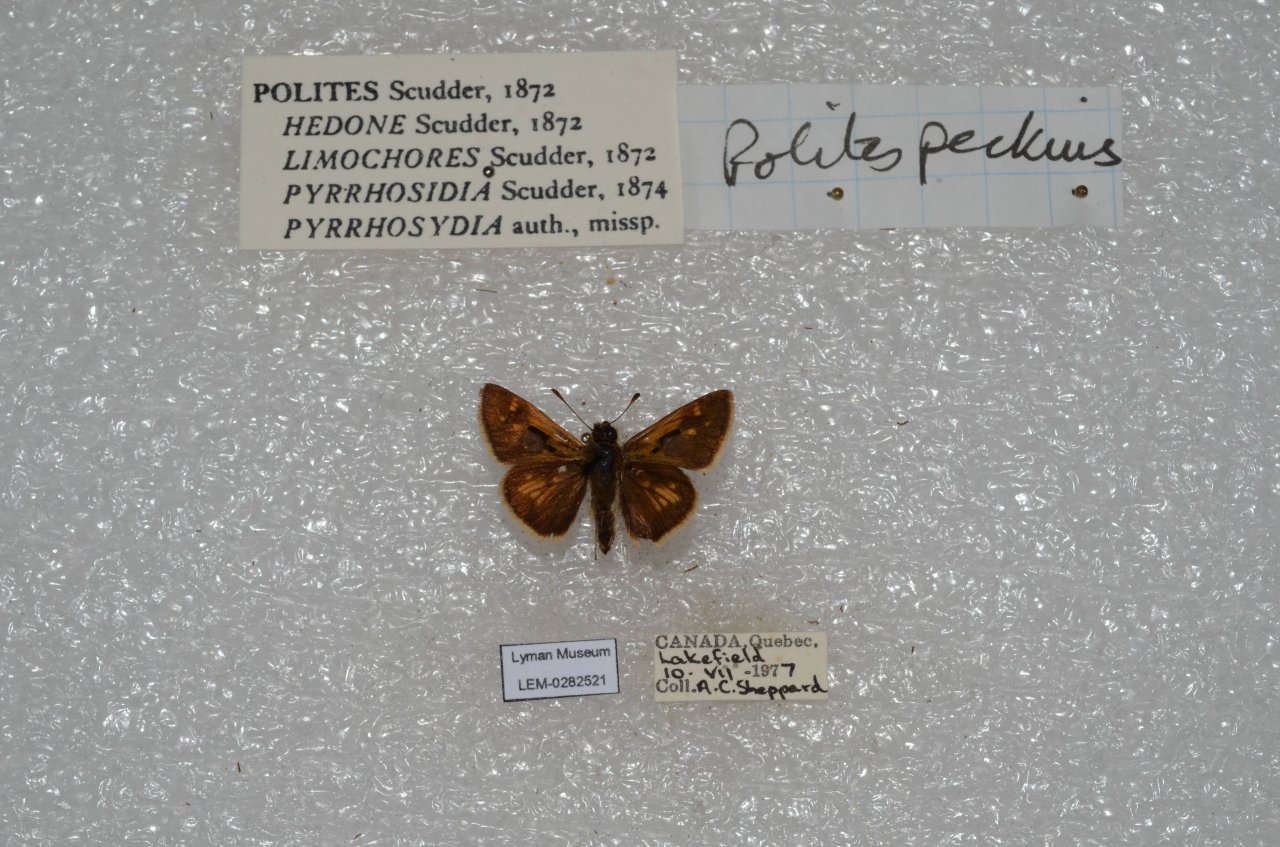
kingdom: Animalia
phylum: Arthropoda
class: Insecta
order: Lepidoptera
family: Hesperiidae
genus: Polites
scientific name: Polites coras
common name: Peck's Skipper
